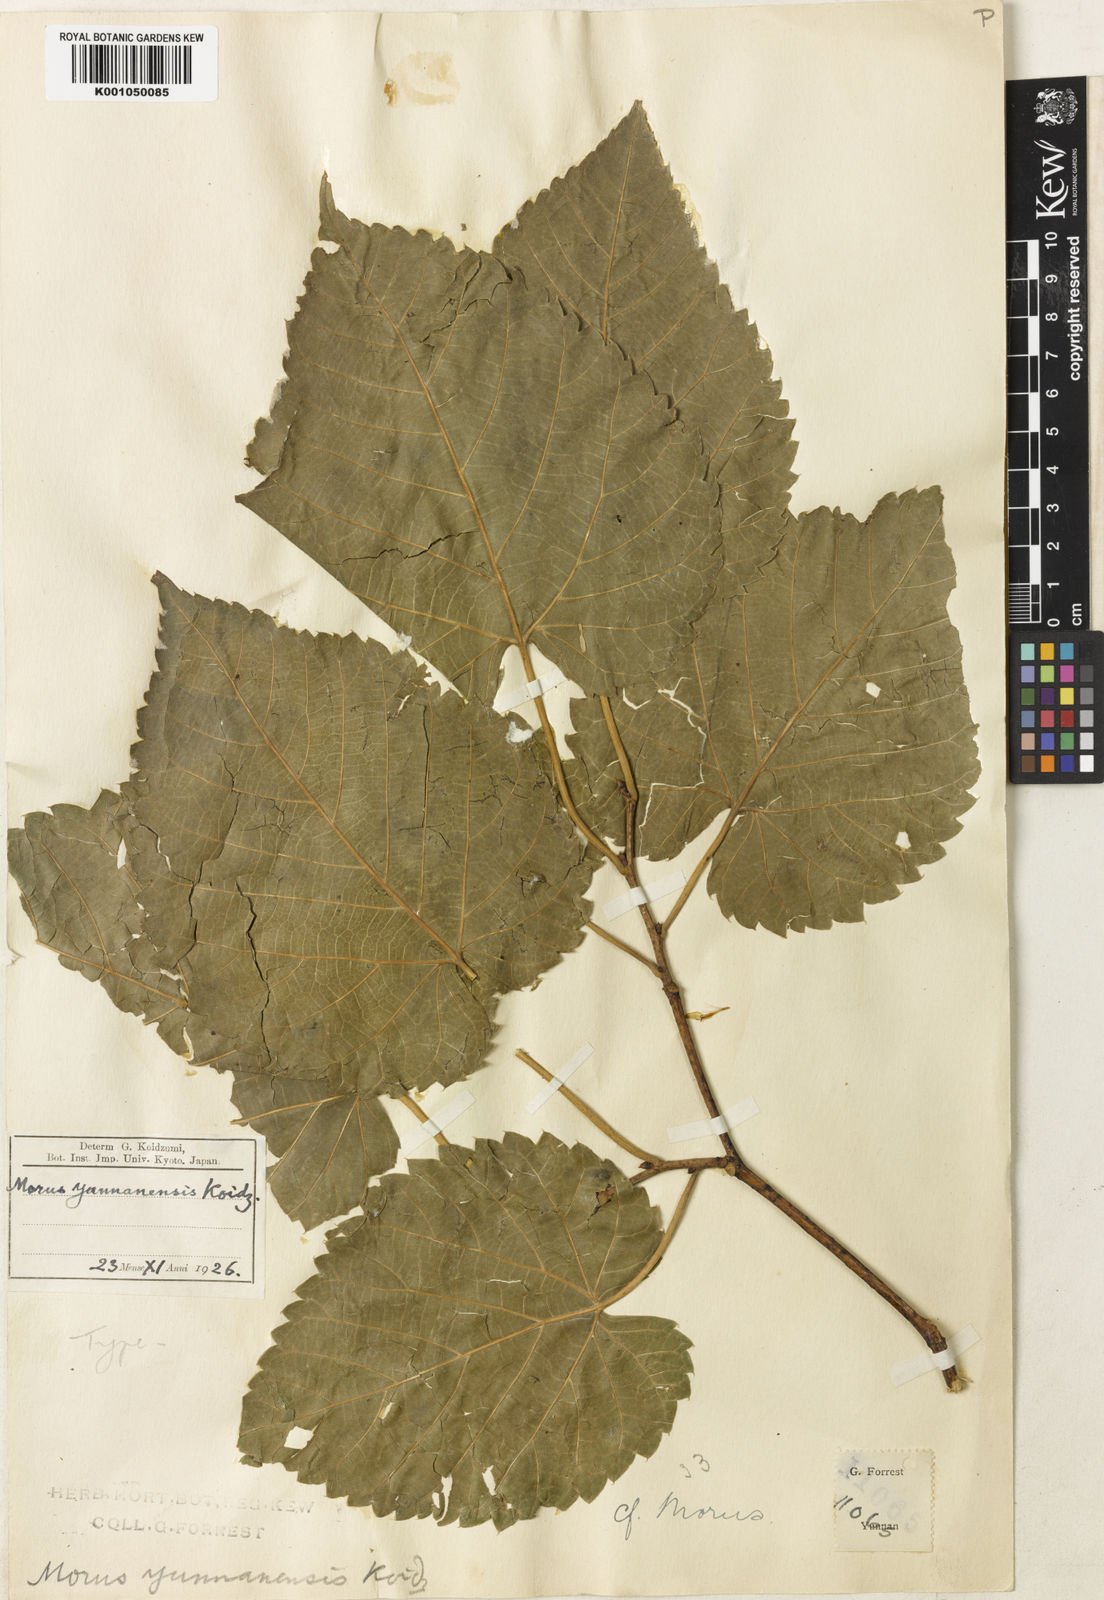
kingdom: Plantae
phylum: Tracheophyta
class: Magnoliopsida
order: Rosales
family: Moraceae
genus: Morus
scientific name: Morus notabilis
